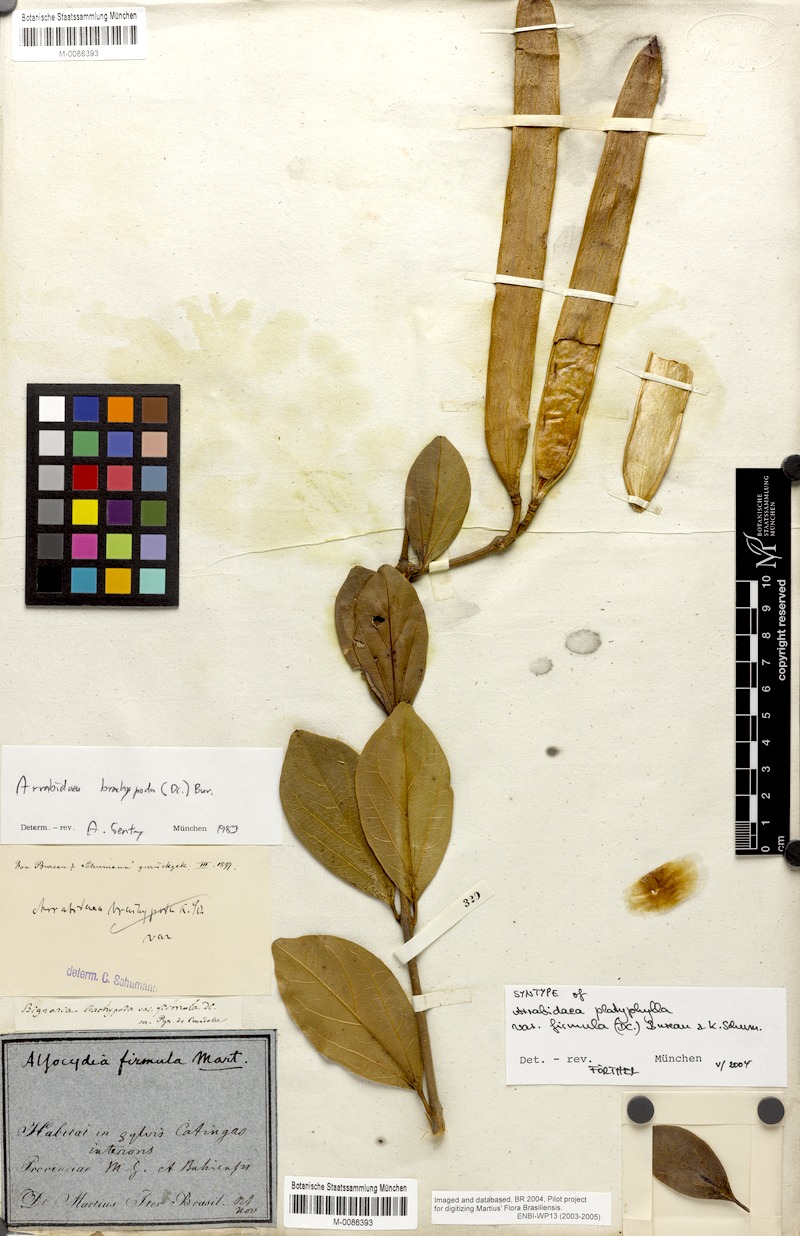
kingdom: Plantae
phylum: Tracheophyta
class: Magnoliopsida
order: Lamiales
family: Bignoniaceae
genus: Fridericia
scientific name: Fridericia platyphylla
